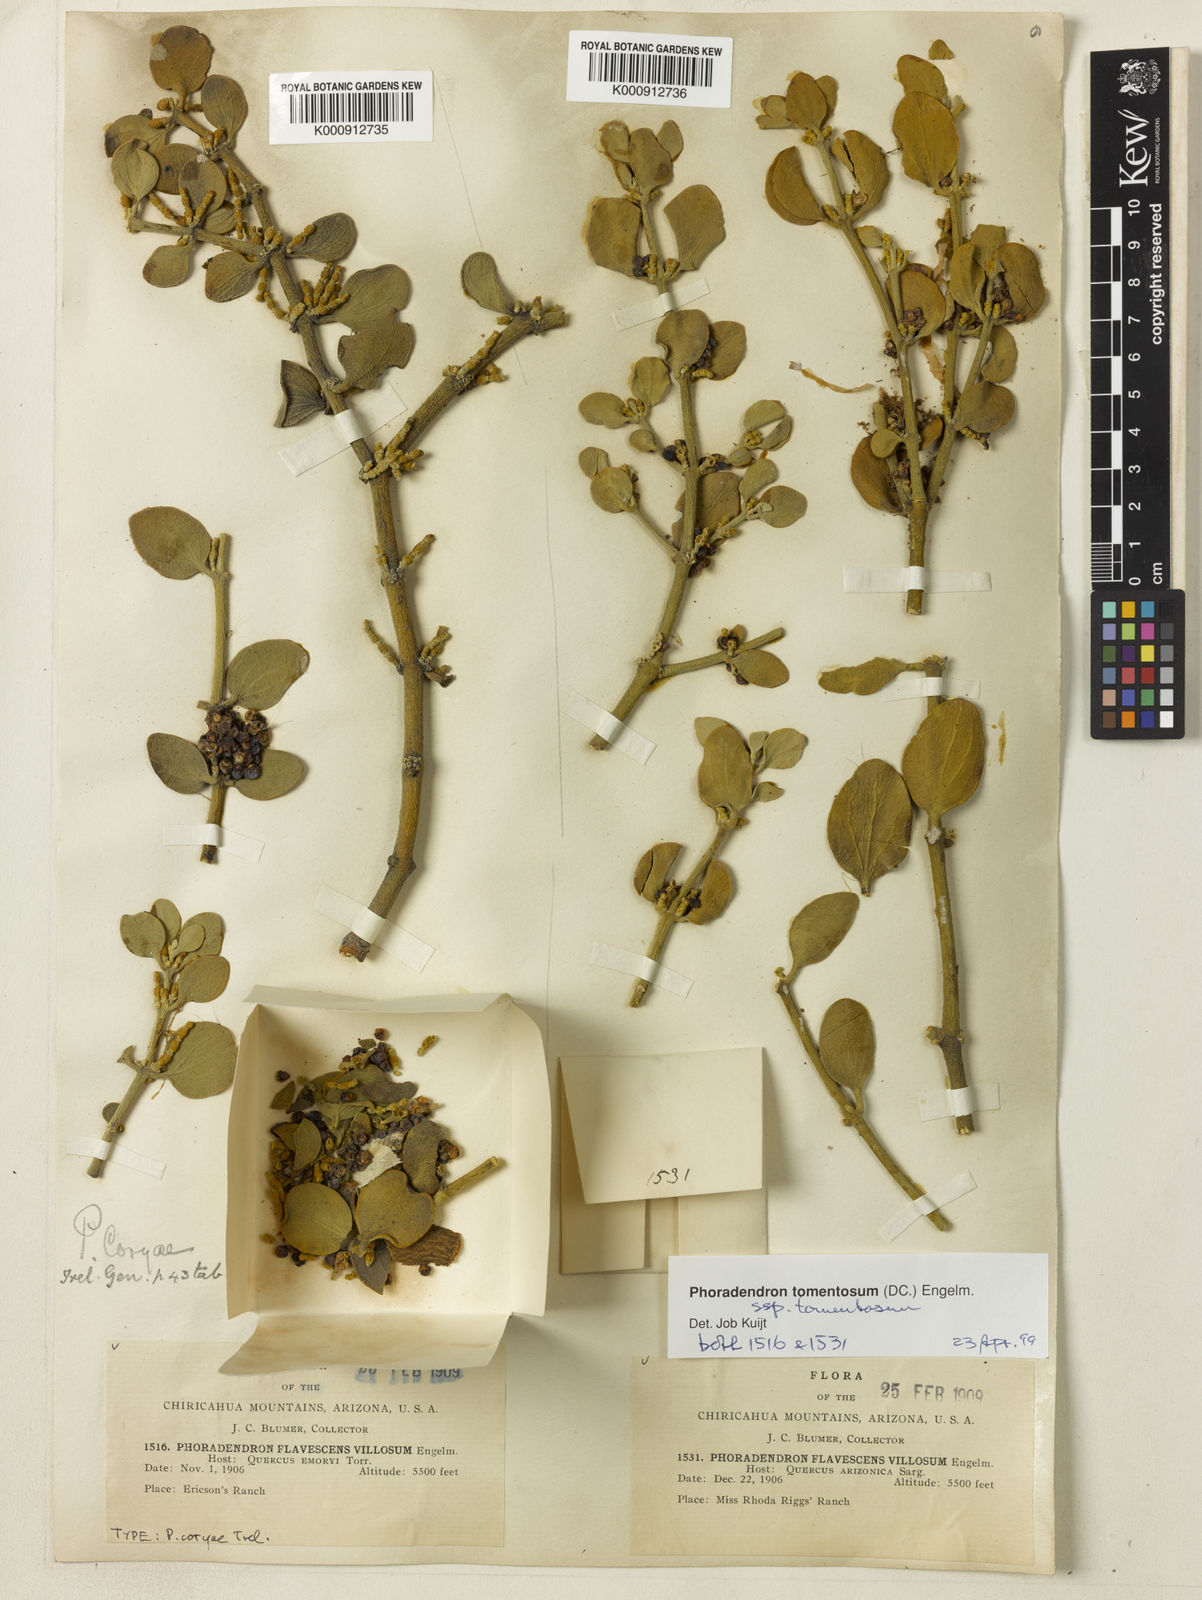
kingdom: Plantae
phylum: Tracheophyta
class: Magnoliopsida
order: Santalales
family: Viscaceae
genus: Phoradendron
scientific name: Phoradendron
